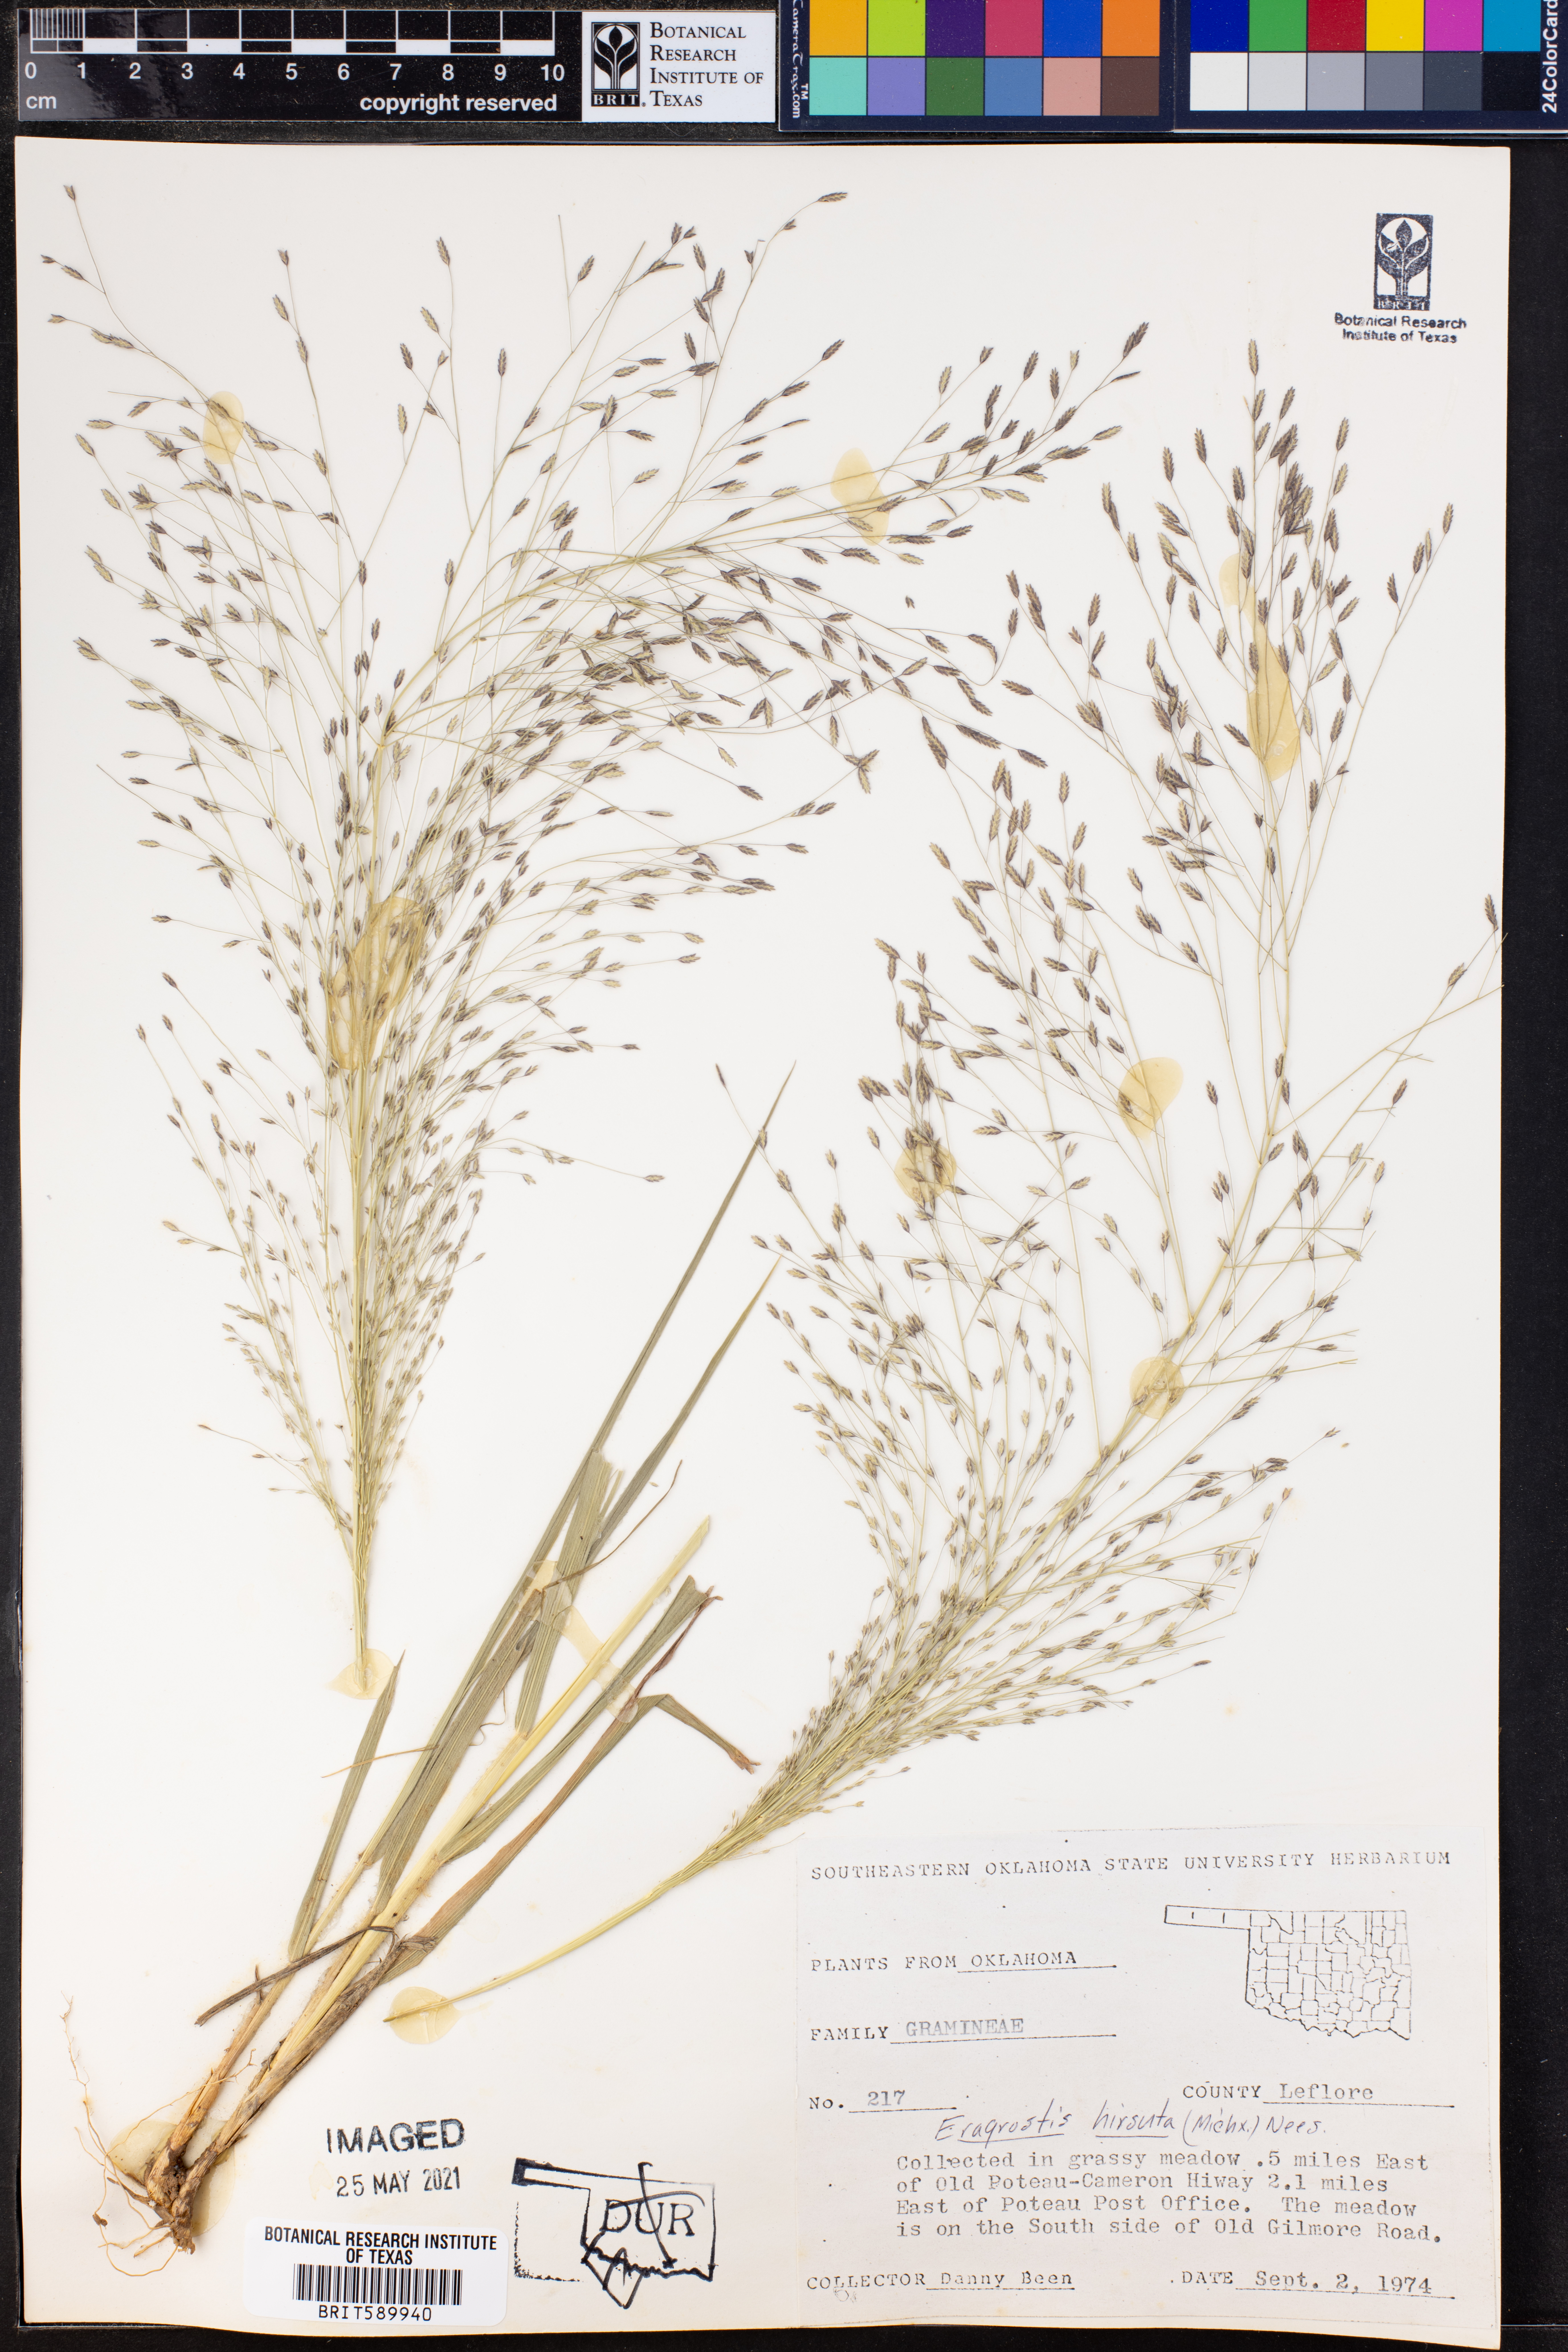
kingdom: Plantae
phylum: Tracheophyta
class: Liliopsida
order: Poales
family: Poaceae
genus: Eragrostis
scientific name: Eragrostis hirsuta
